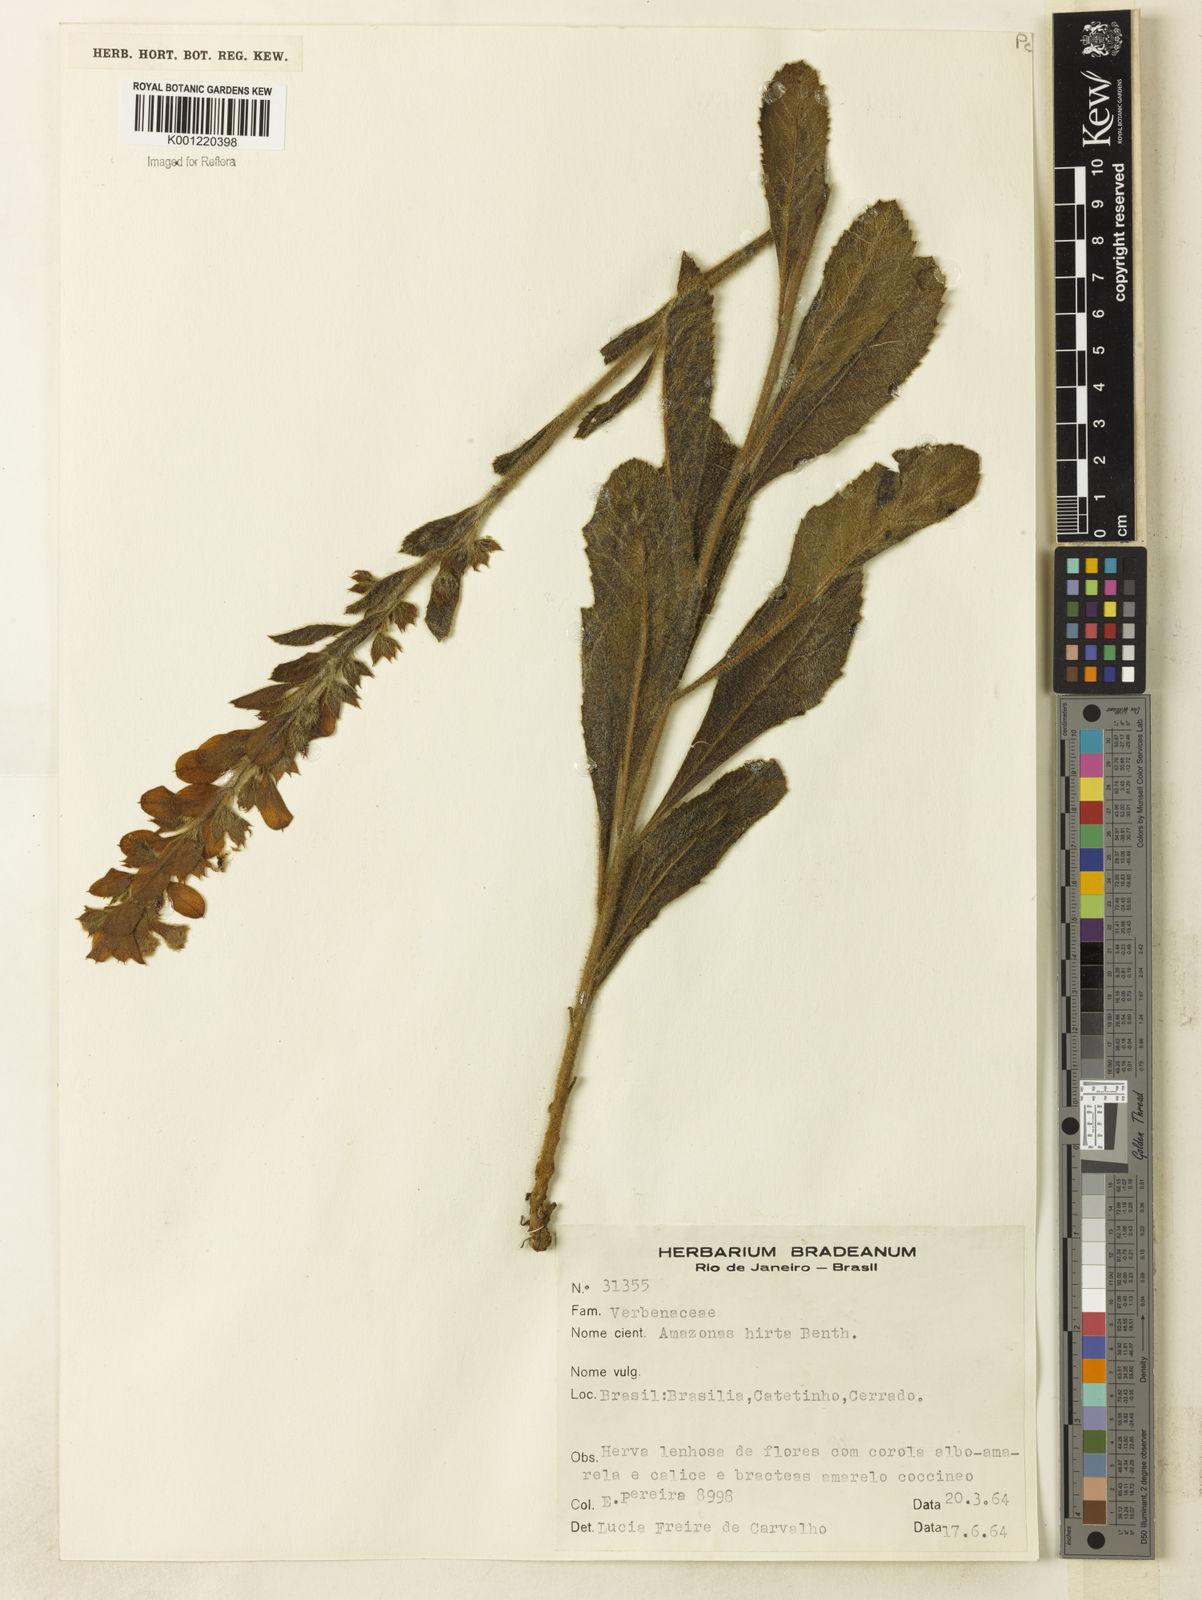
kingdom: Plantae
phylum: Tracheophyta
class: Magnoliopsida
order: Lamiales
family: Lamiaceae
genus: Amasonia
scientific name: Amasonia hirta
